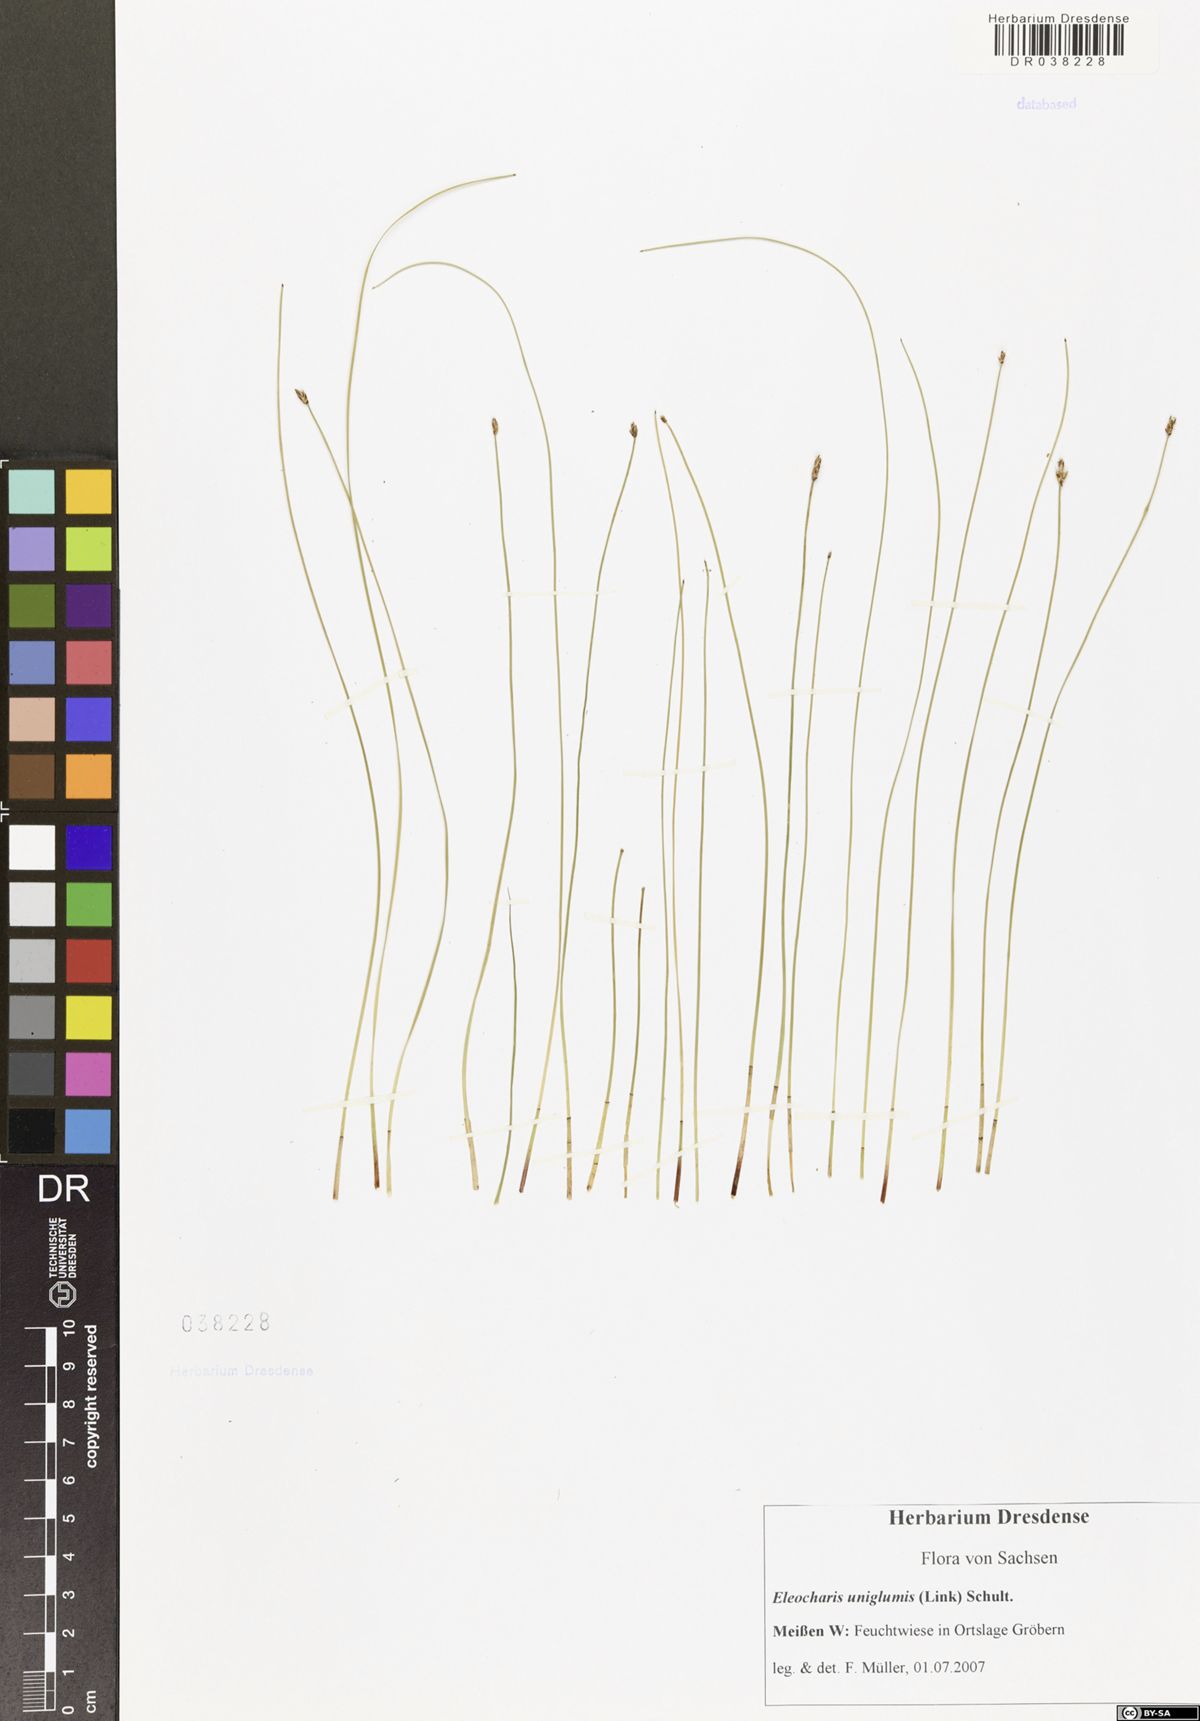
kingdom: Plantae
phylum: Tracheophyta
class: Liliopsida
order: Poales
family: Cyperaceae
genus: Eleocharis
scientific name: Eleocharis uniglumis
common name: Slender spike-rush
